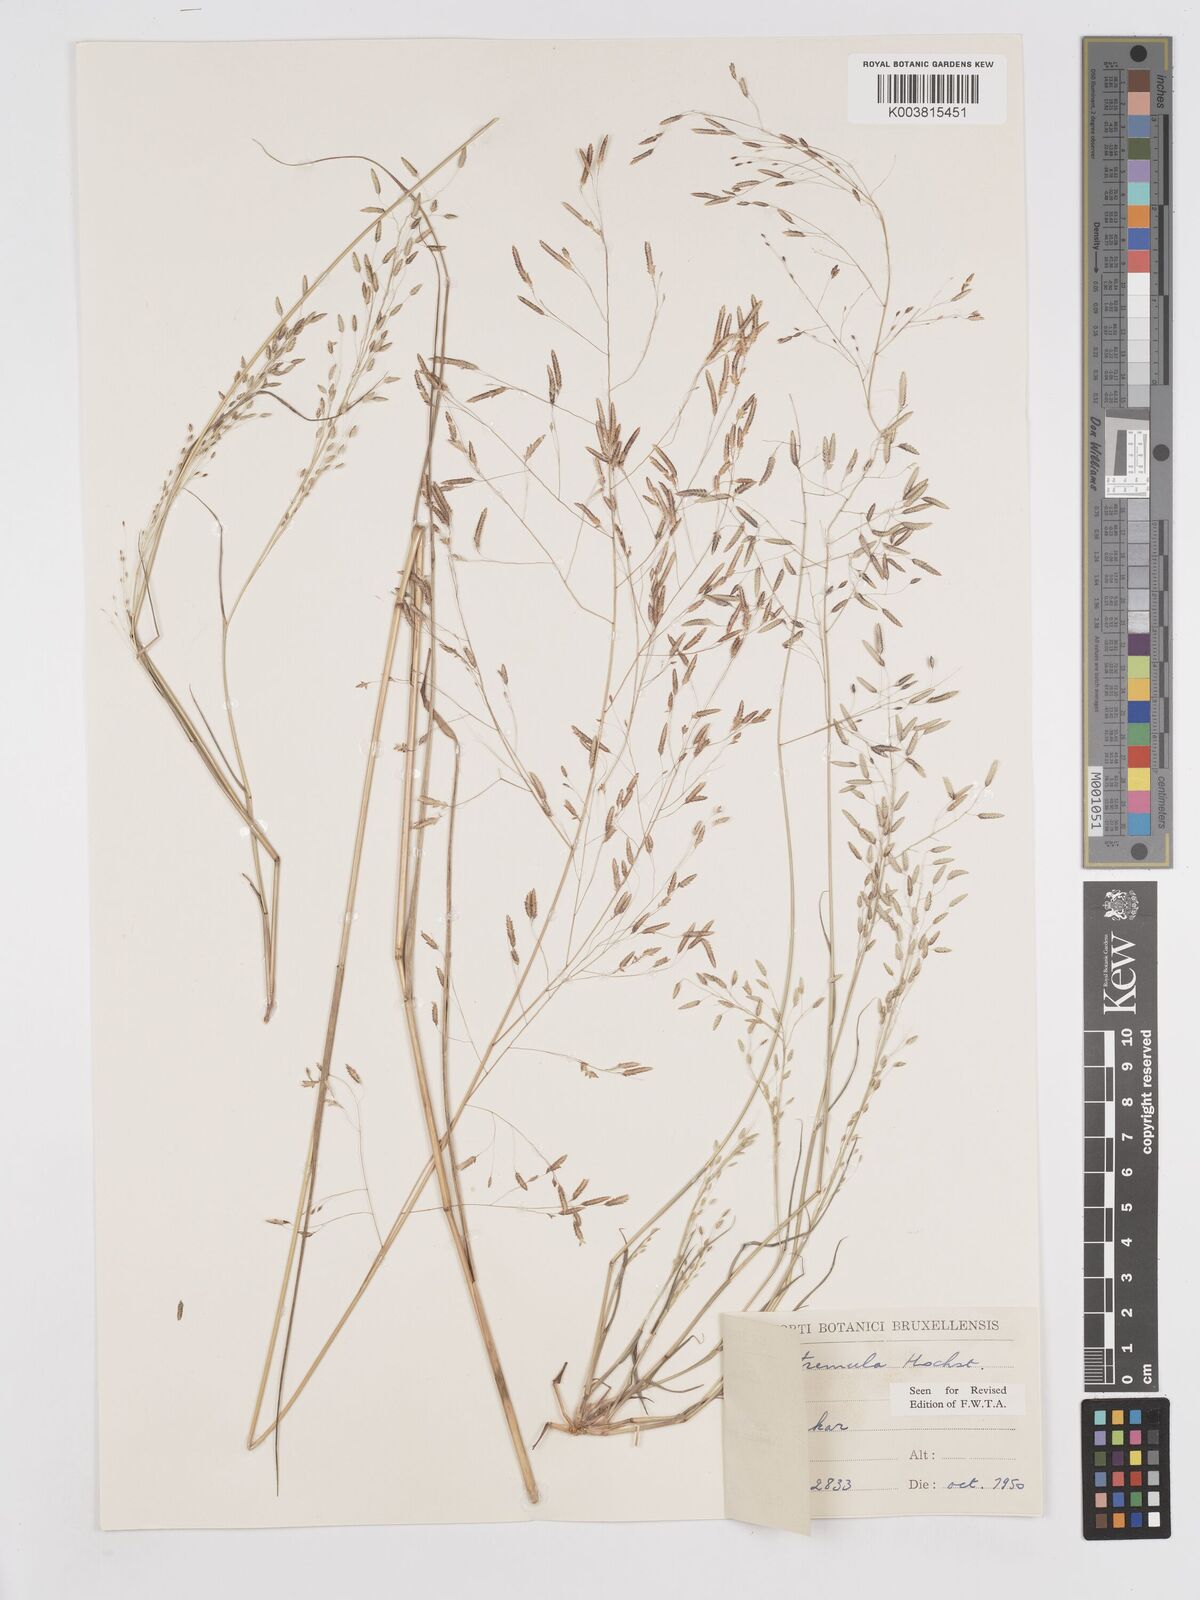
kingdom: Plantae
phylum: Tracheophyta
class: Liliopsida
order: Poales
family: Poaceae
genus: Eragrostis
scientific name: Eragrostis tremula
